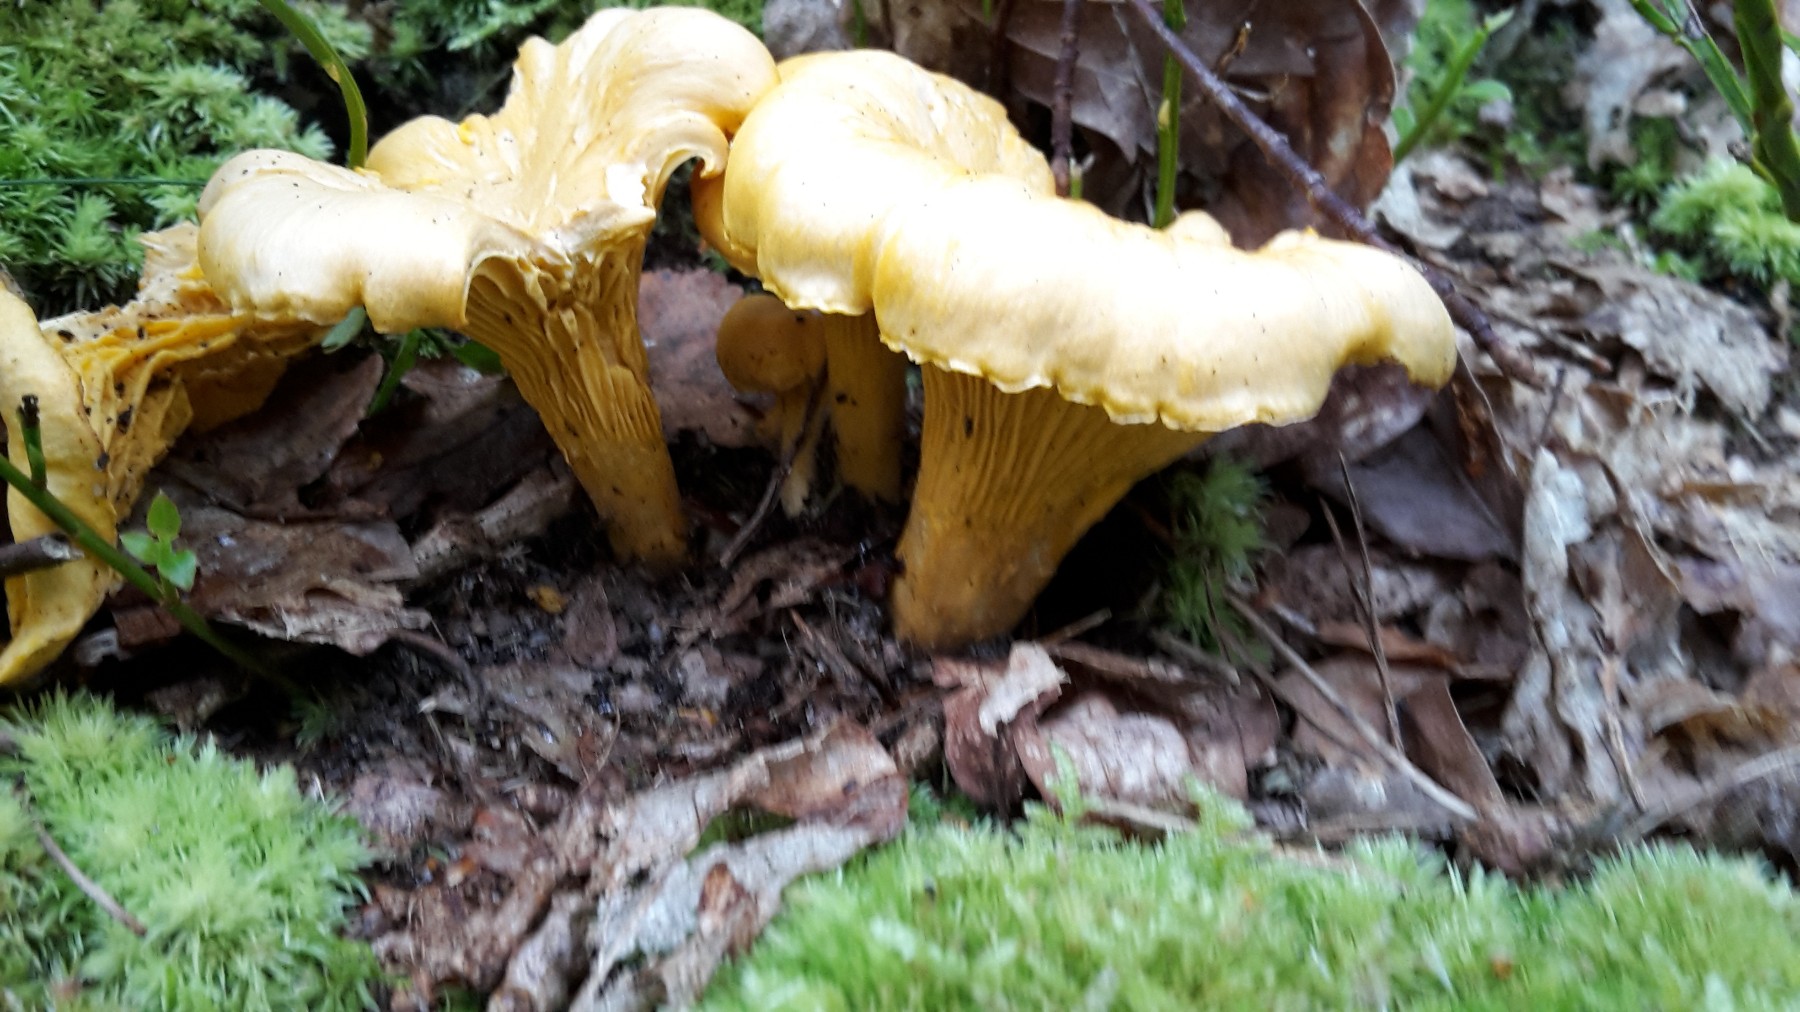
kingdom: Fungi
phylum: Basidiomycota
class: Agaricomycetes
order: Cantharellales
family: Hydnaceae
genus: Cantharellus
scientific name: Cantharellus cibarius
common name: almindelig kantarel
